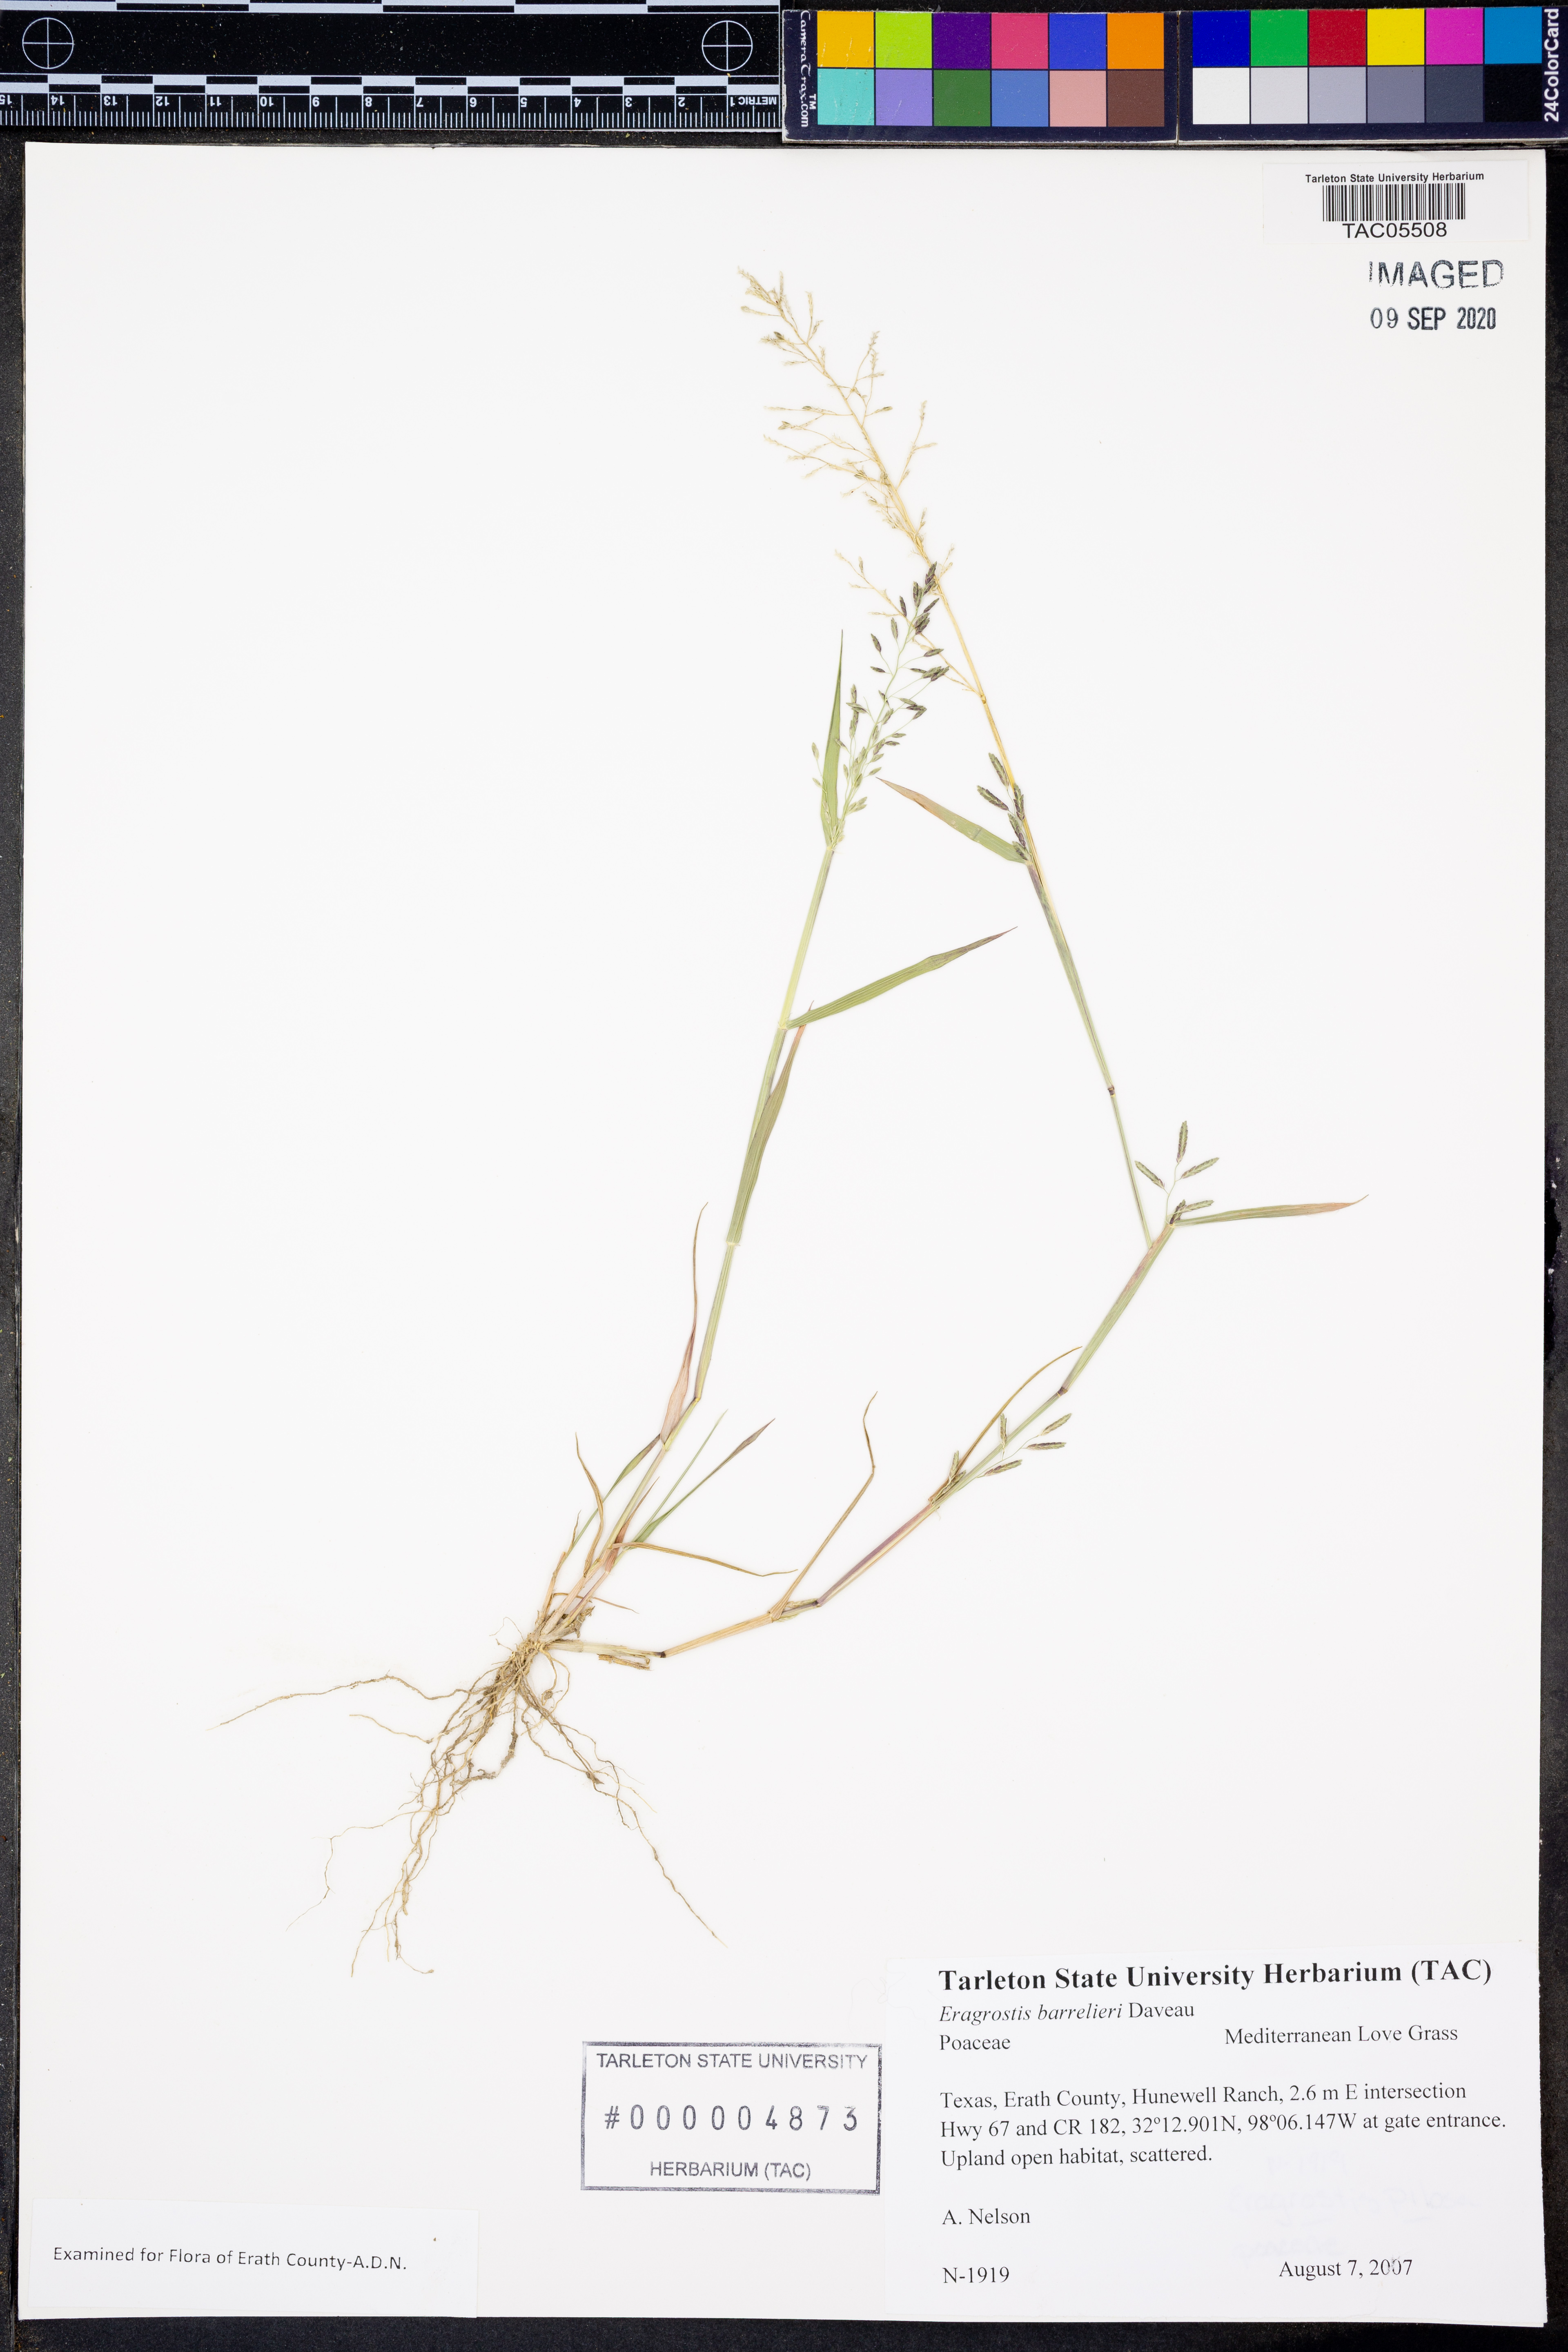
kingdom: Plantae
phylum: Tracheophyta
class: Liliopsida
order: Poales
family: Poaceae
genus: Eragrostis
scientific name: Eragrostis barrelieri
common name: Mediterranean lovegrass
